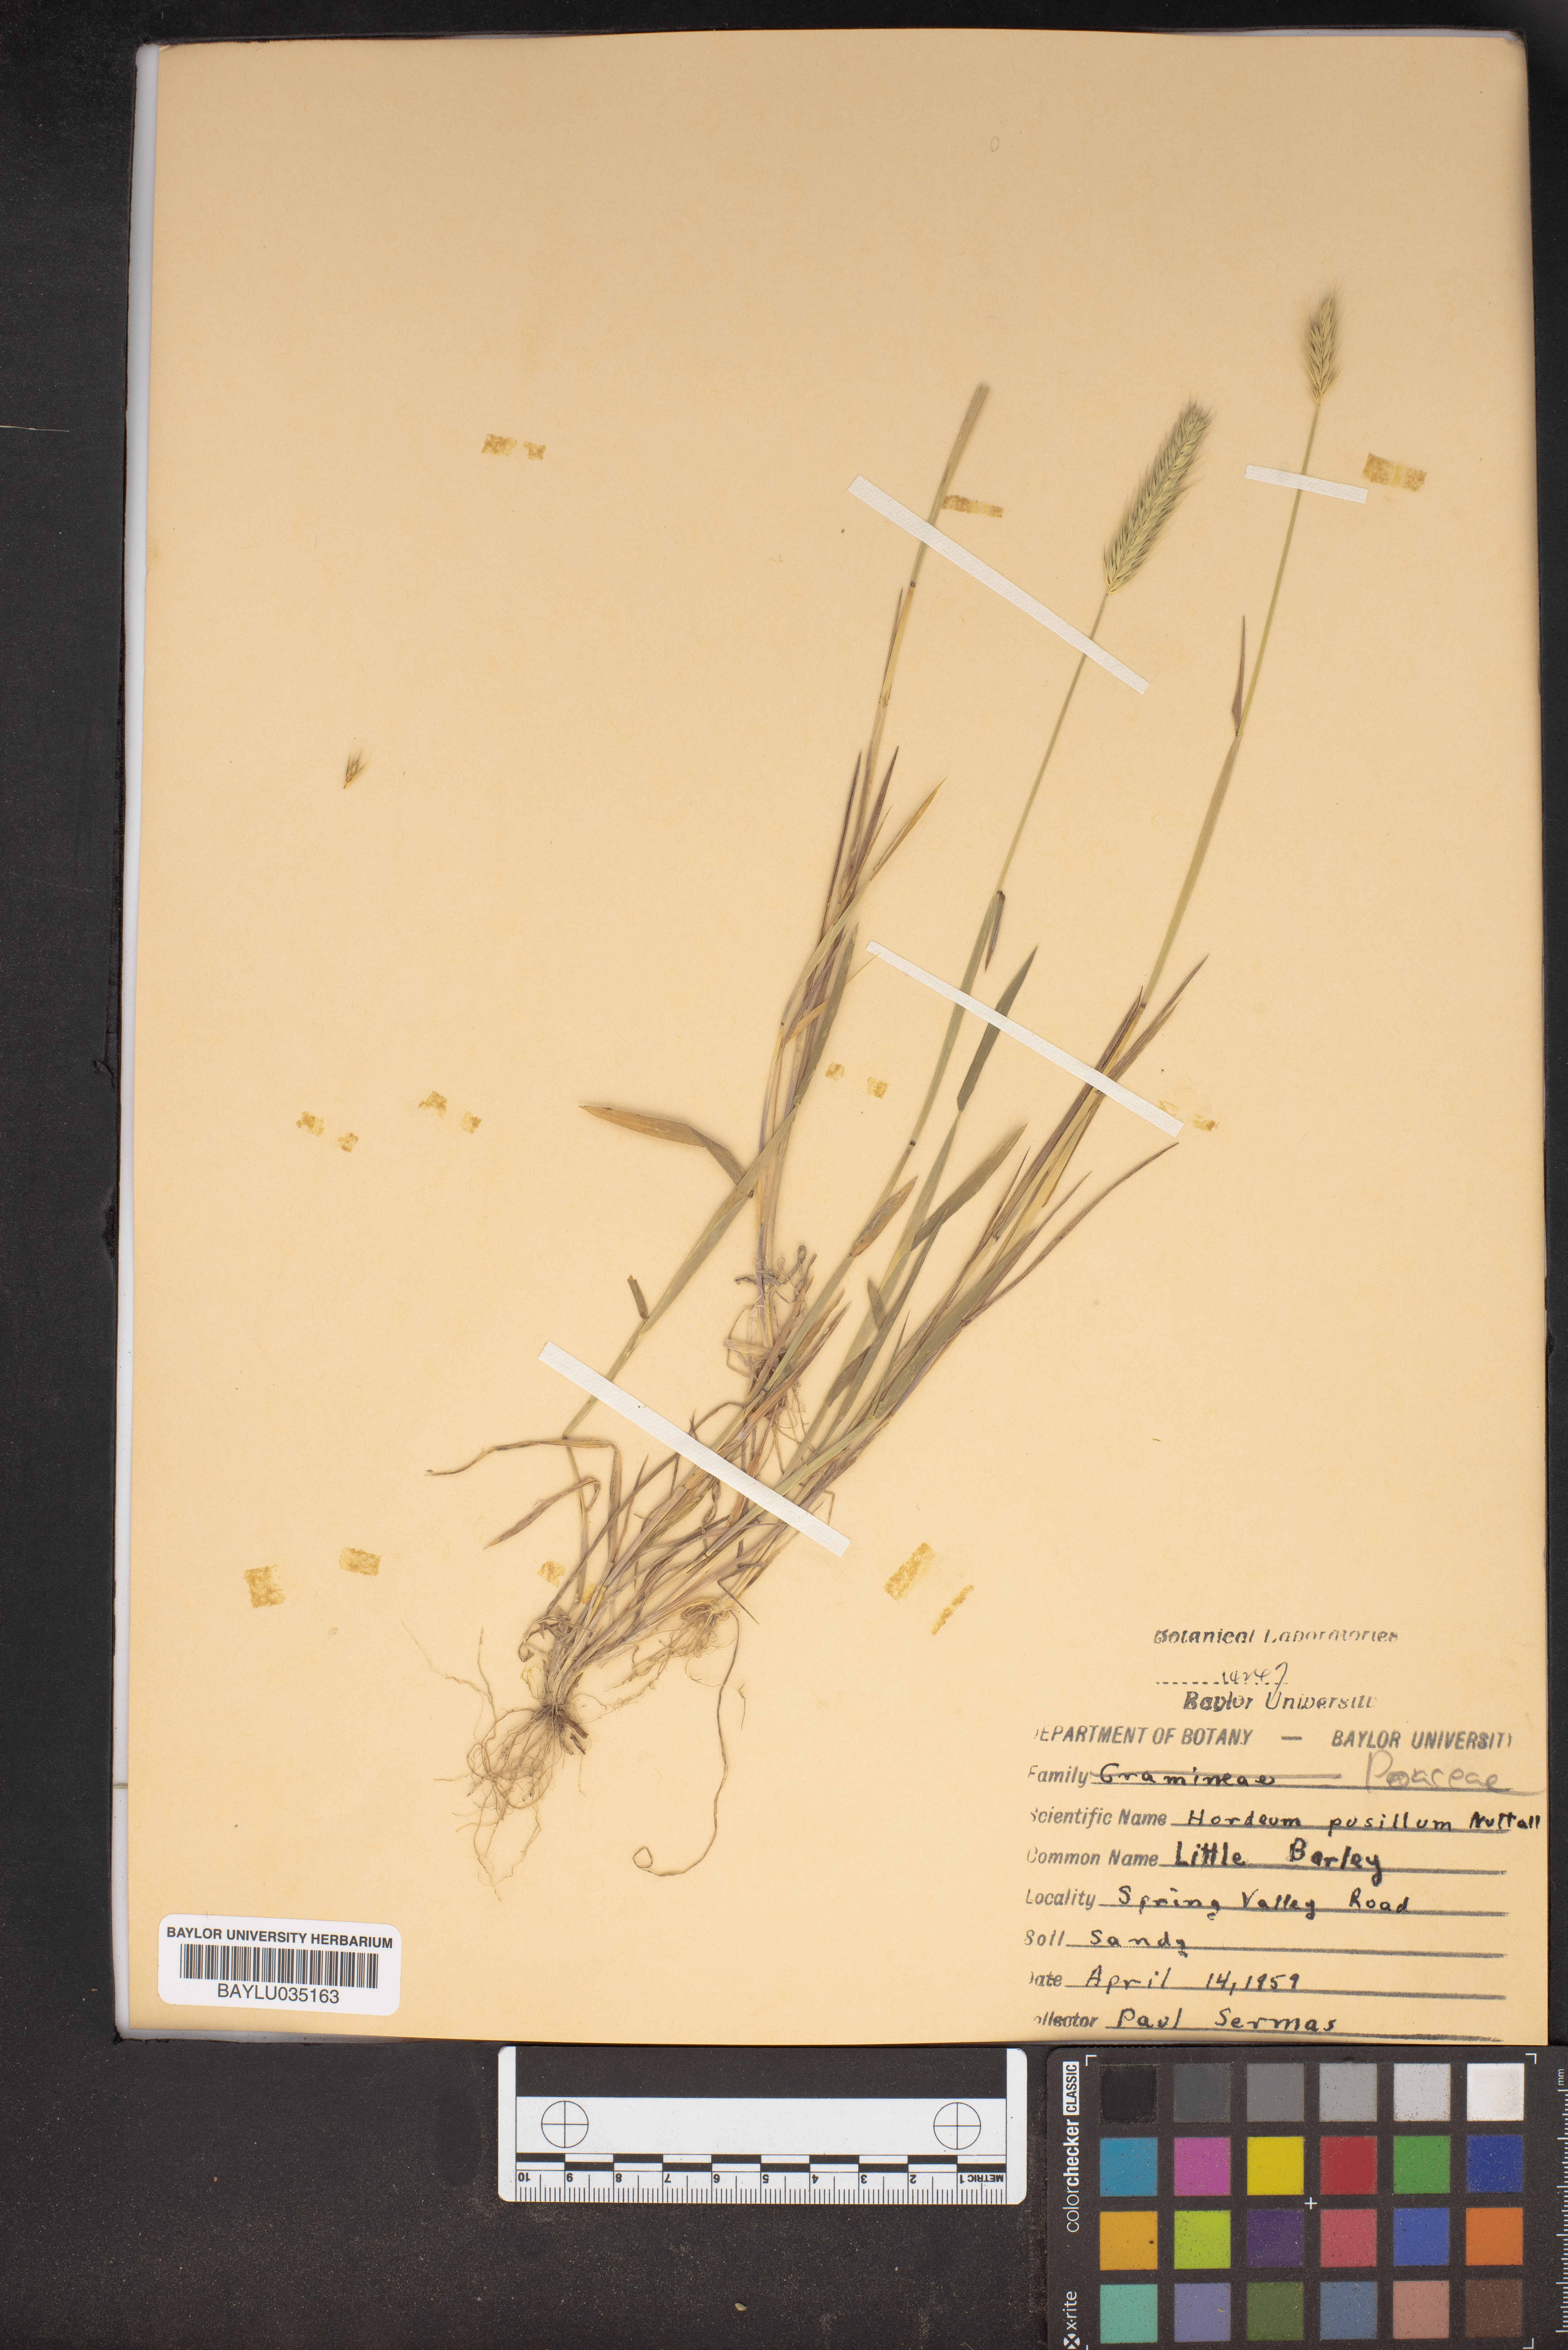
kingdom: Plantae
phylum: Tracheophyta
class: Liliopsida
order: Poales
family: Poaceae
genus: Hordeum
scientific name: Hordeum pusillum
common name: Little barley
